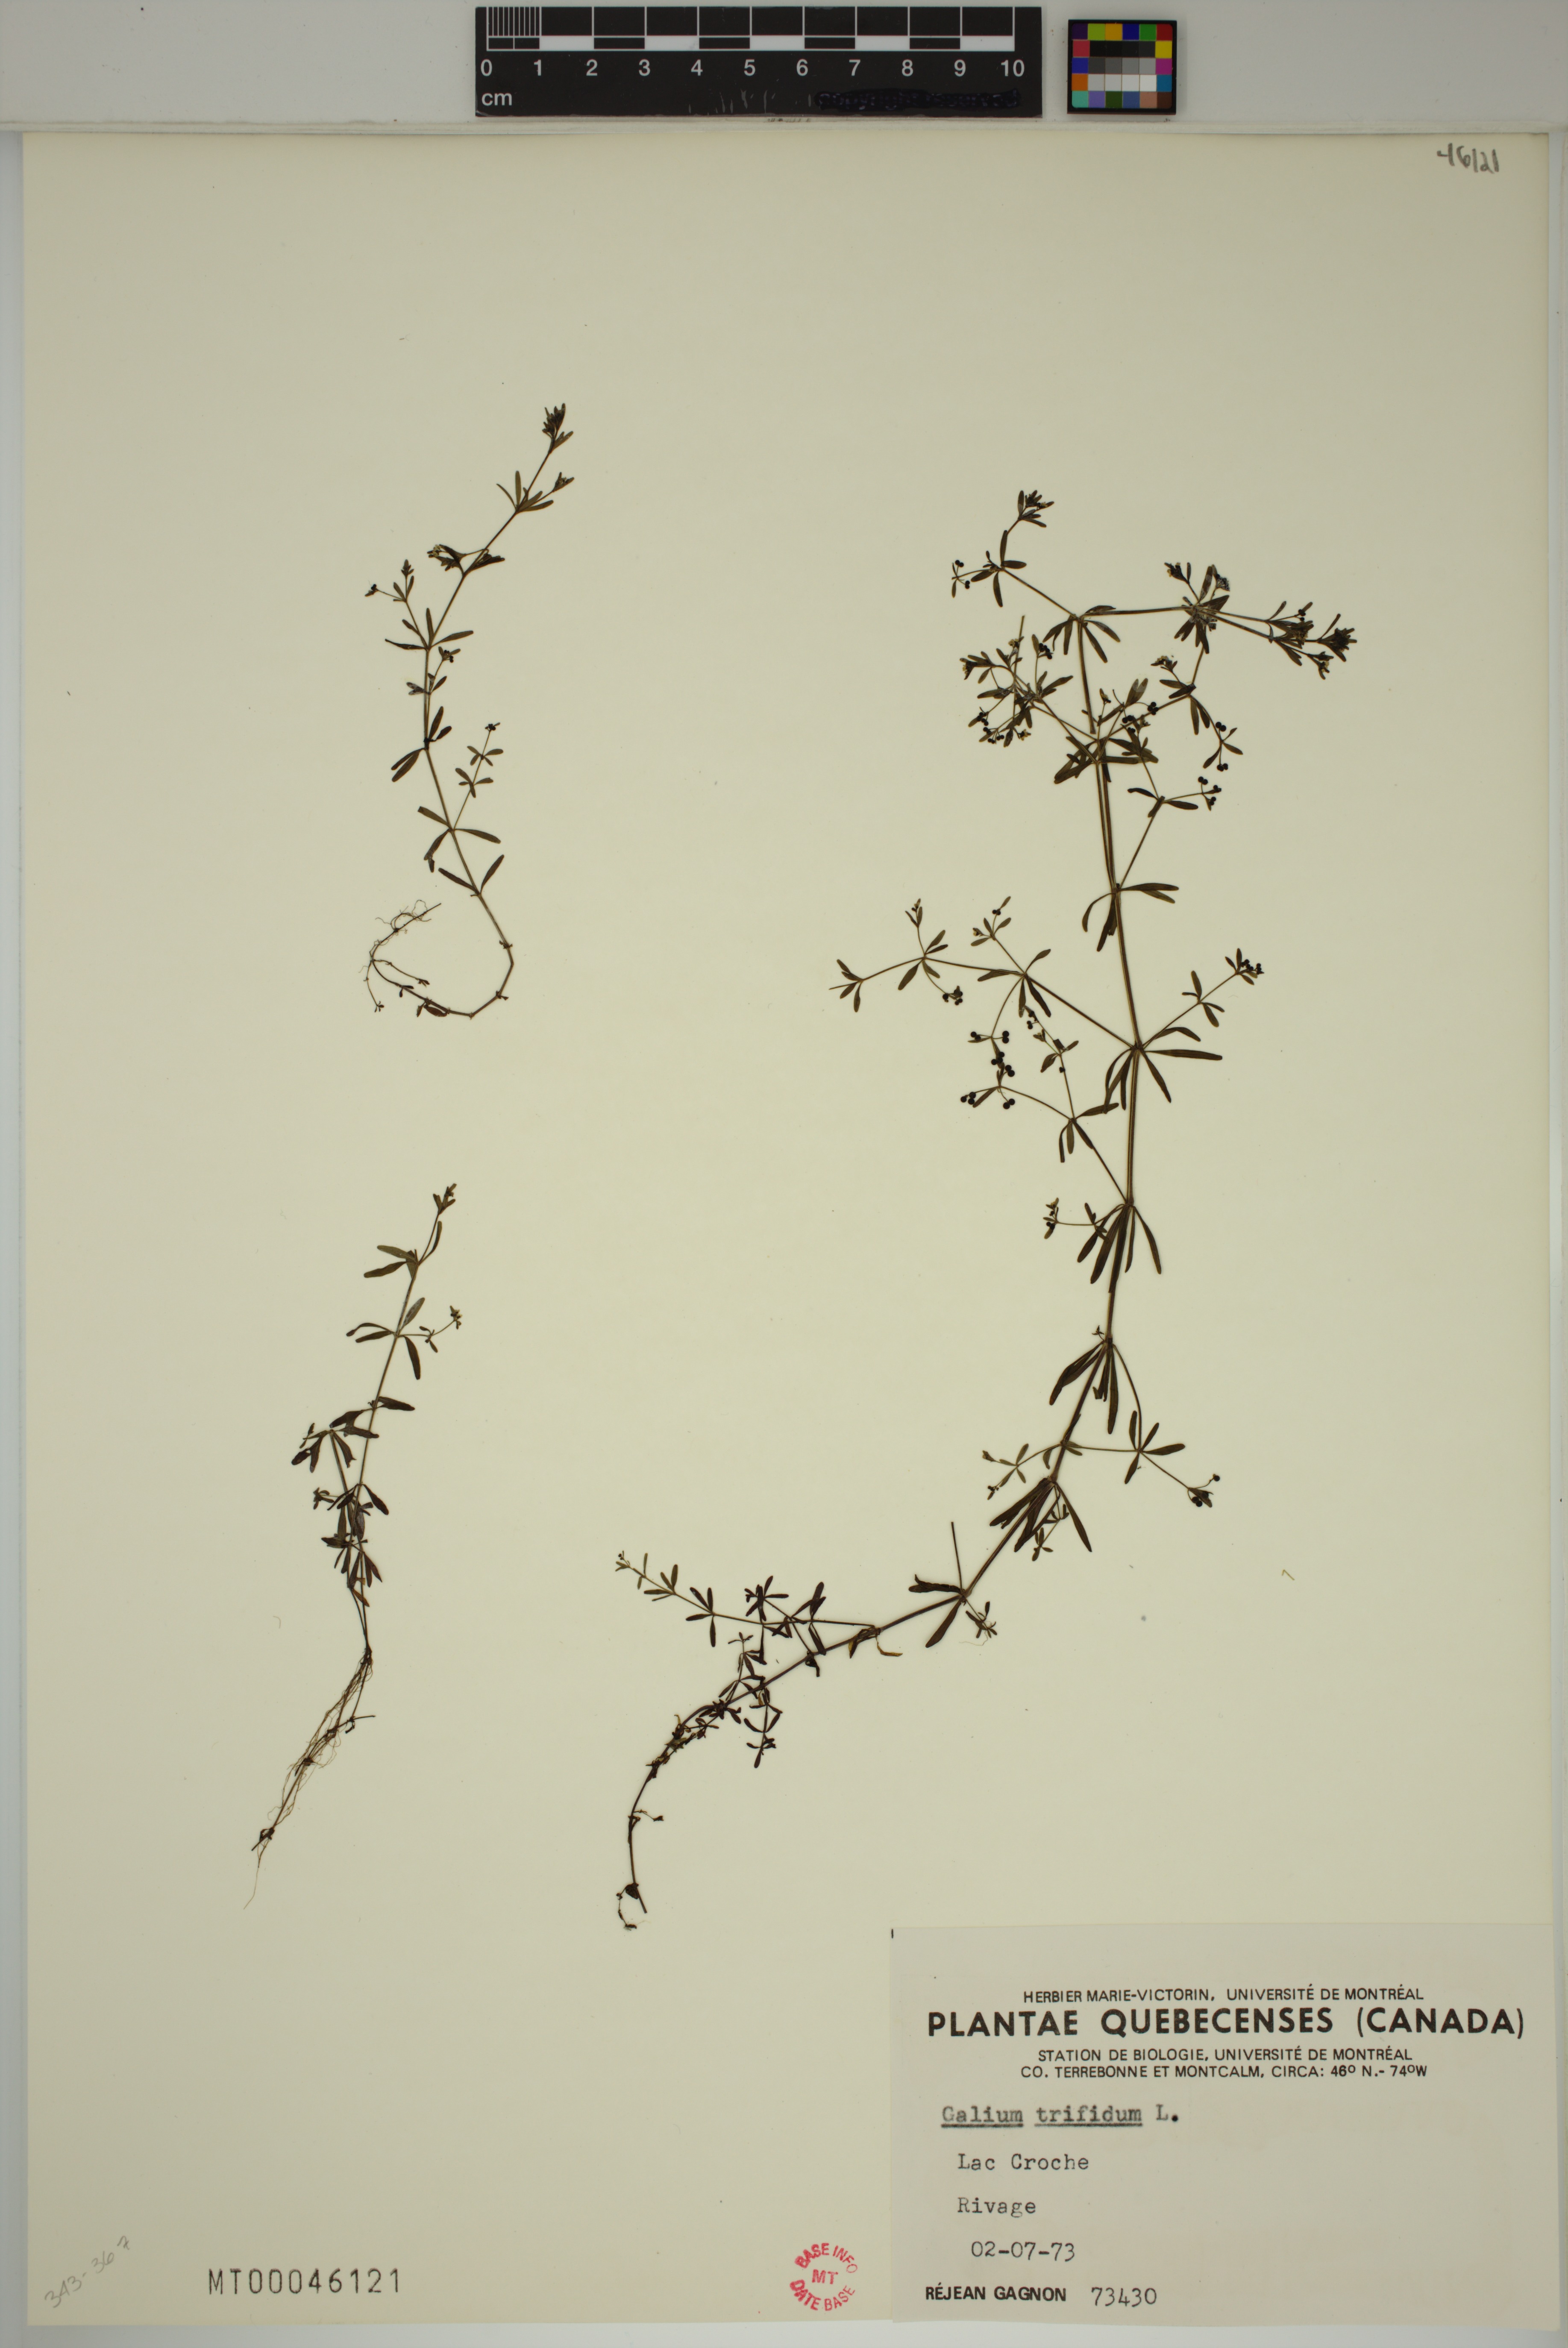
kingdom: Plantae
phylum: Tracheophyta
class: Magnoliopsida
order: Gentianales
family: Rubiaceae
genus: Galium
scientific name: Galium trifidum
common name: Small bedstraw
